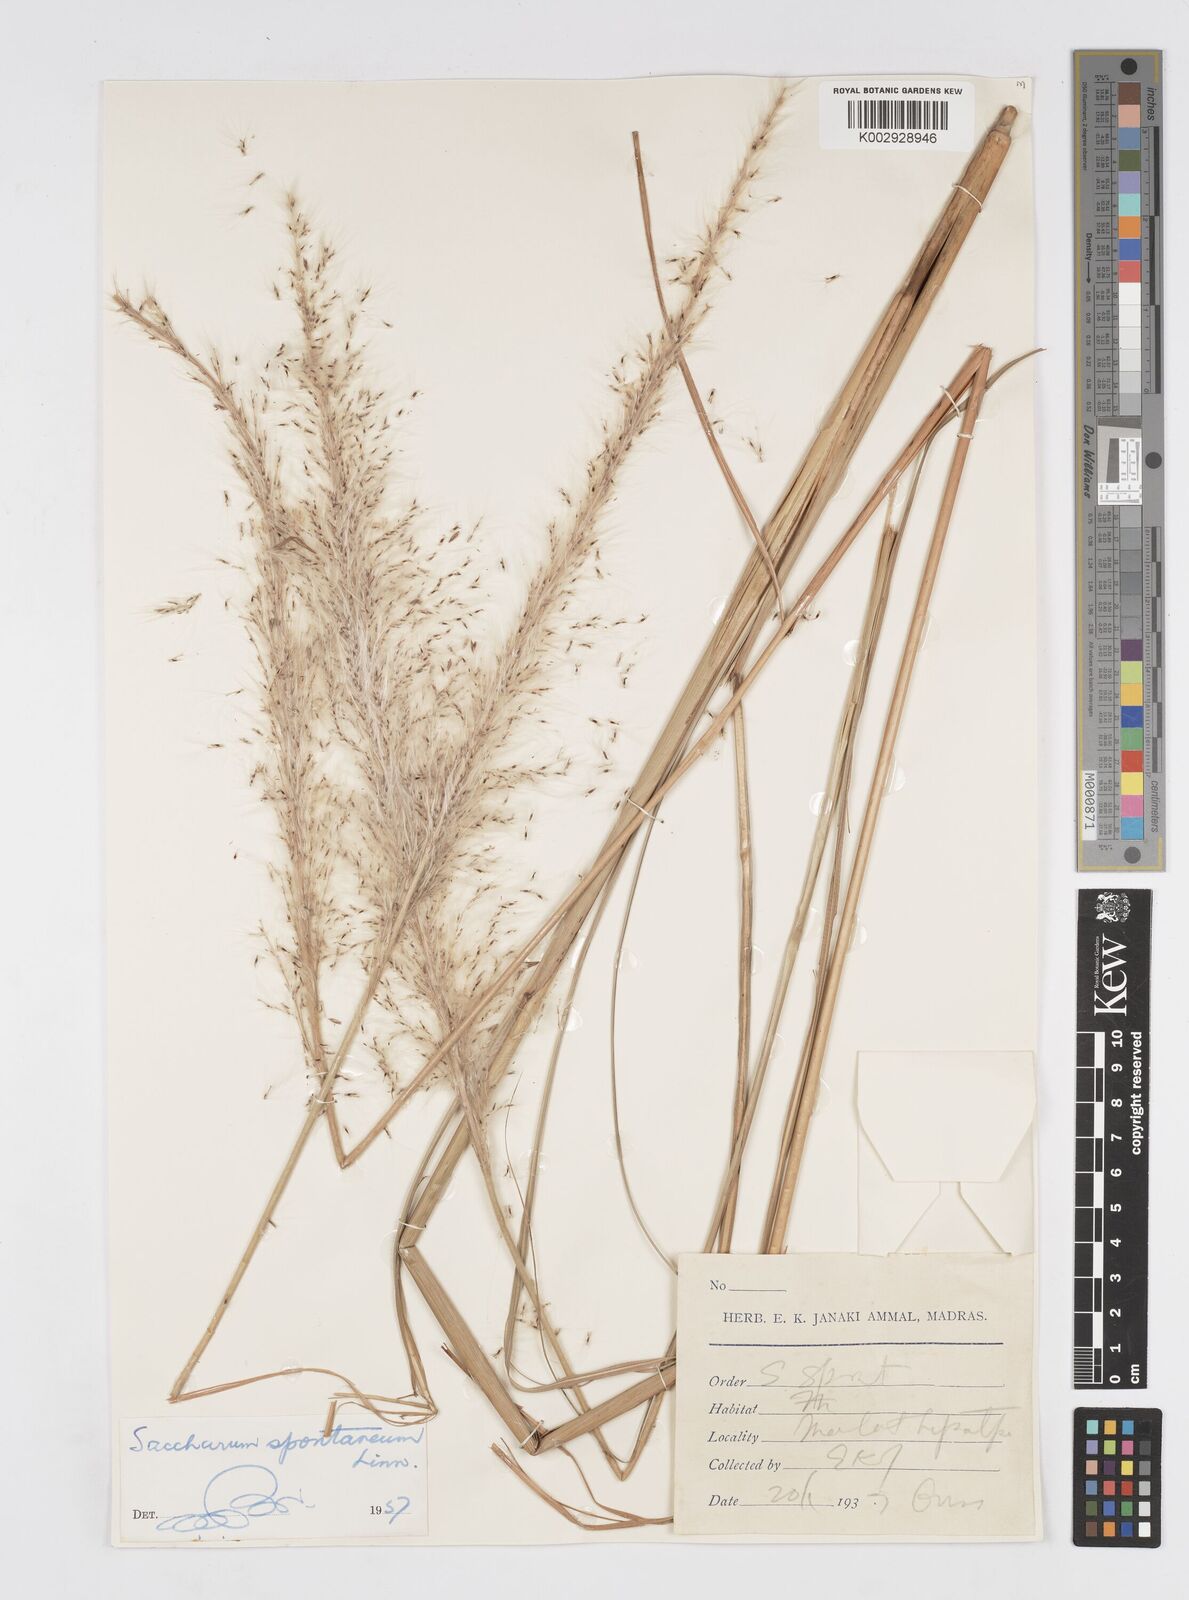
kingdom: Plantae
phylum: Tracheophyta
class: Liliopsida
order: Poales
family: Poaceae
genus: Saccharum
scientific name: Saccharum spontaneum
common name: Wild sugarcane
